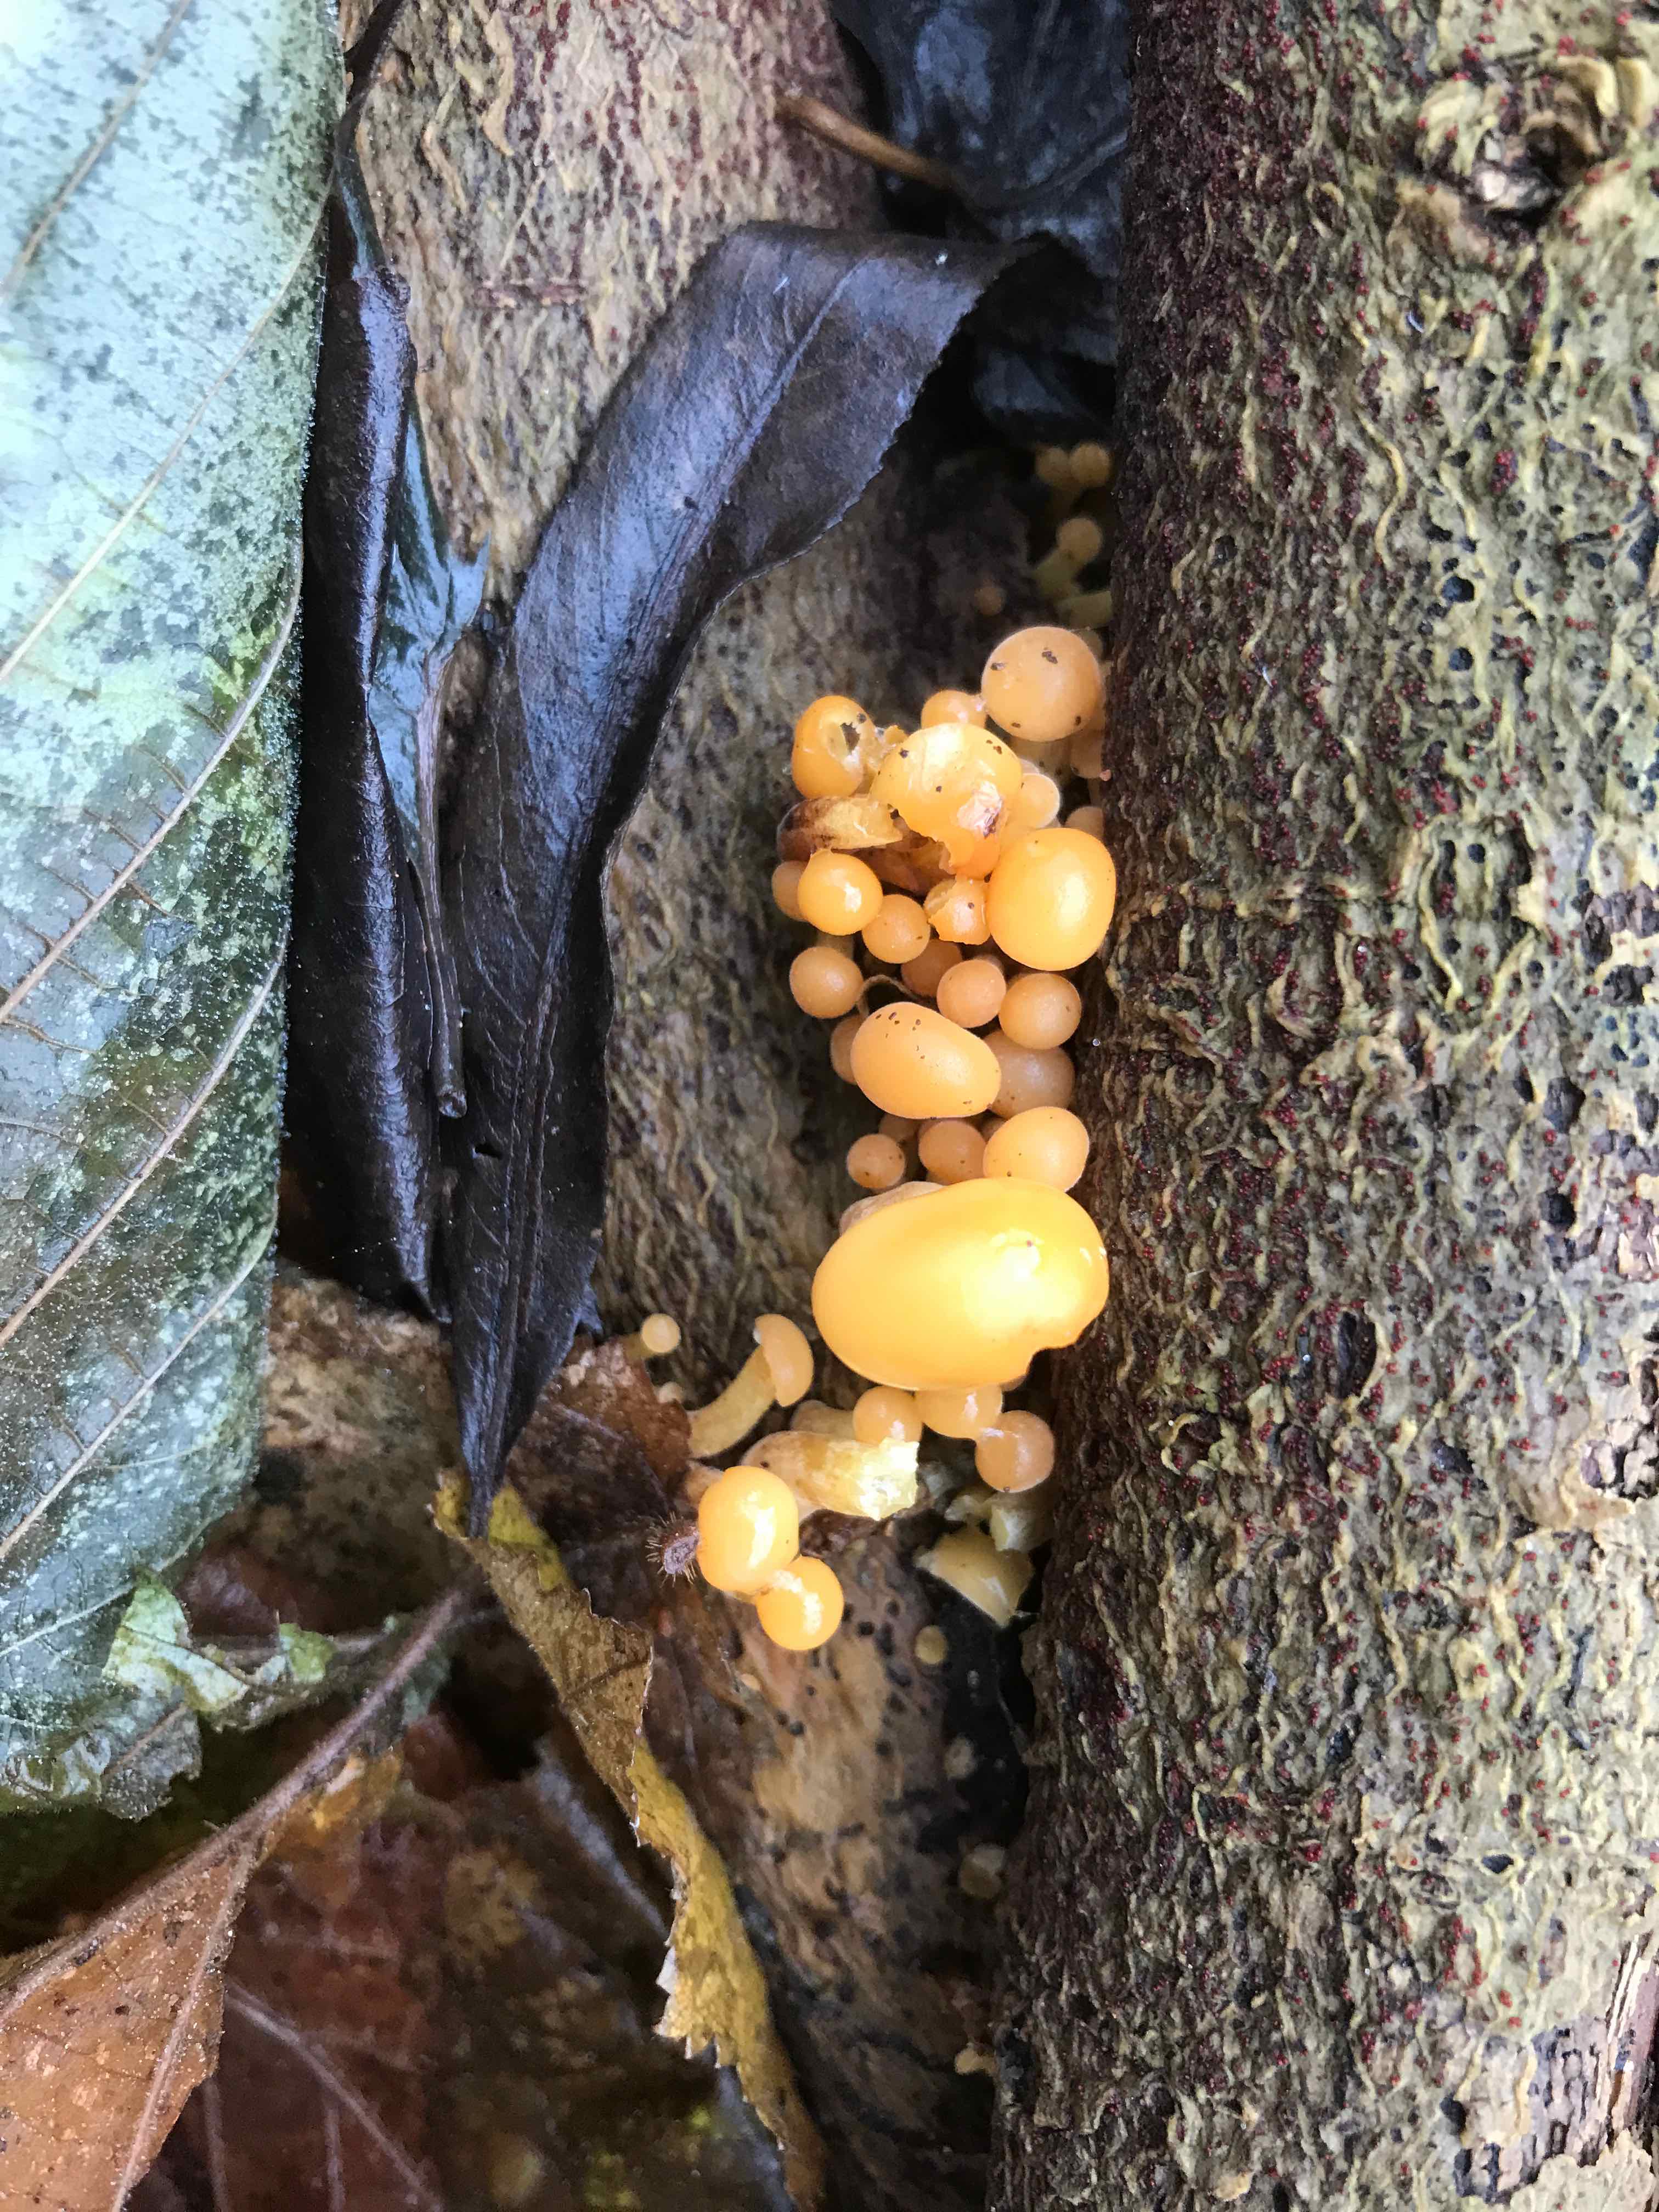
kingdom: Fungi
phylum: Basidiomycota
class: Agaricomycetes
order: Agaricales
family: Physalacriaceae
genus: Flammulina
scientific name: Flammulina
